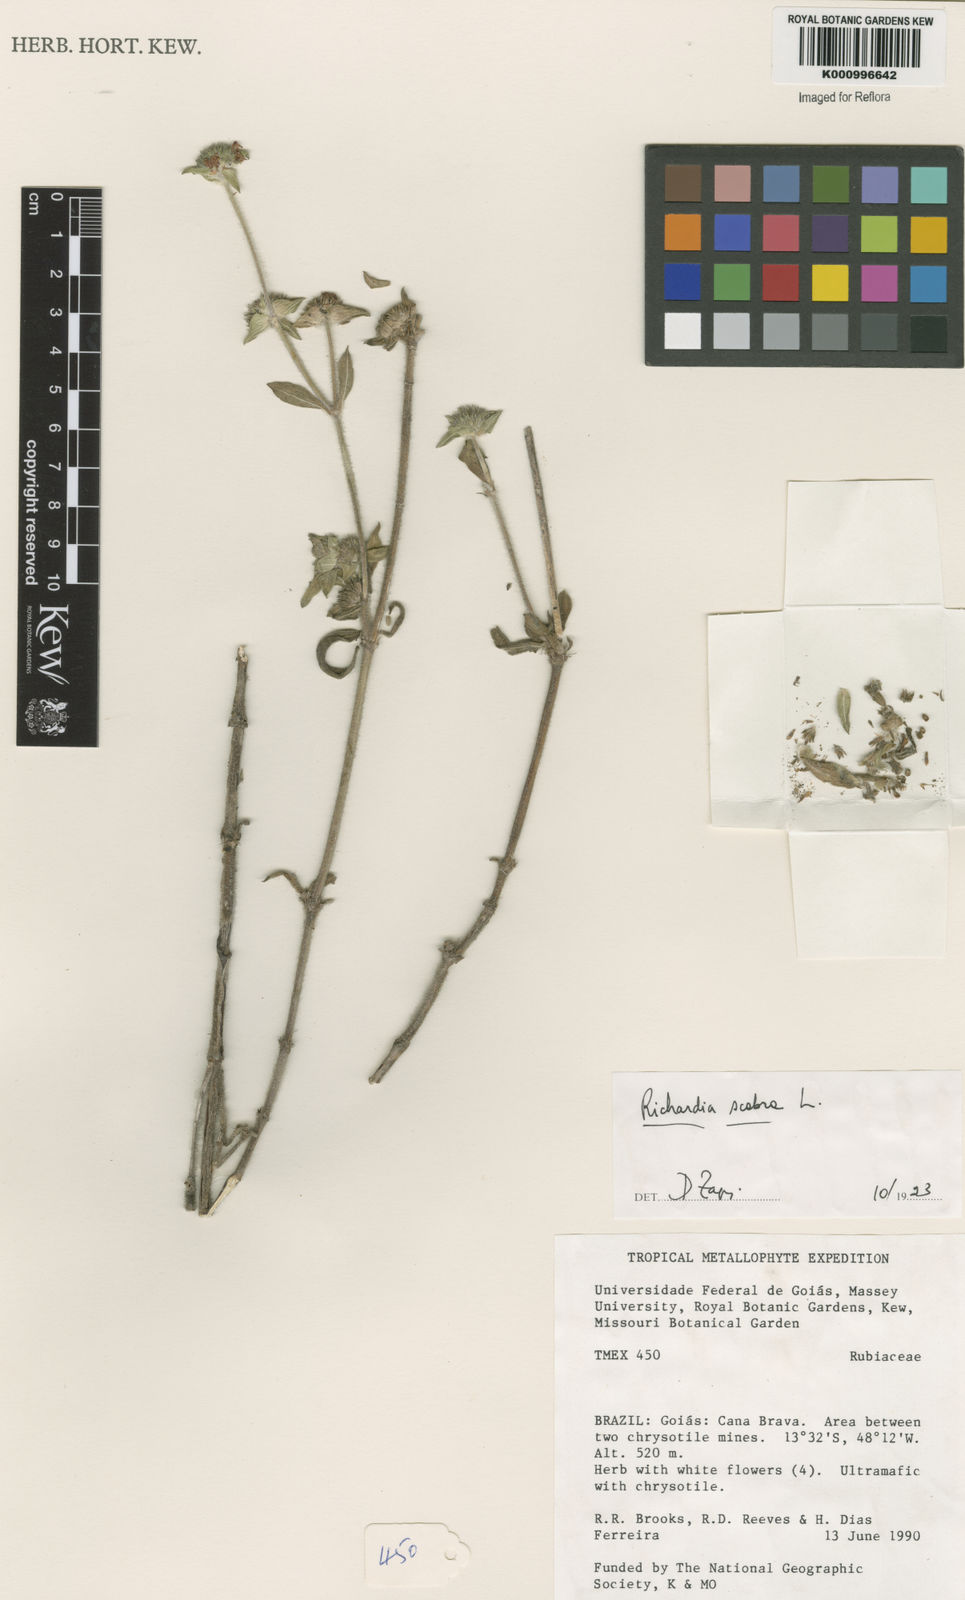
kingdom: Plantae
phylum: Tracheophyta
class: Magnoliopsida
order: Gentianales
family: Rubiaceae
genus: Richardia
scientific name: Richardia scabra
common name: Rough mexican clover
